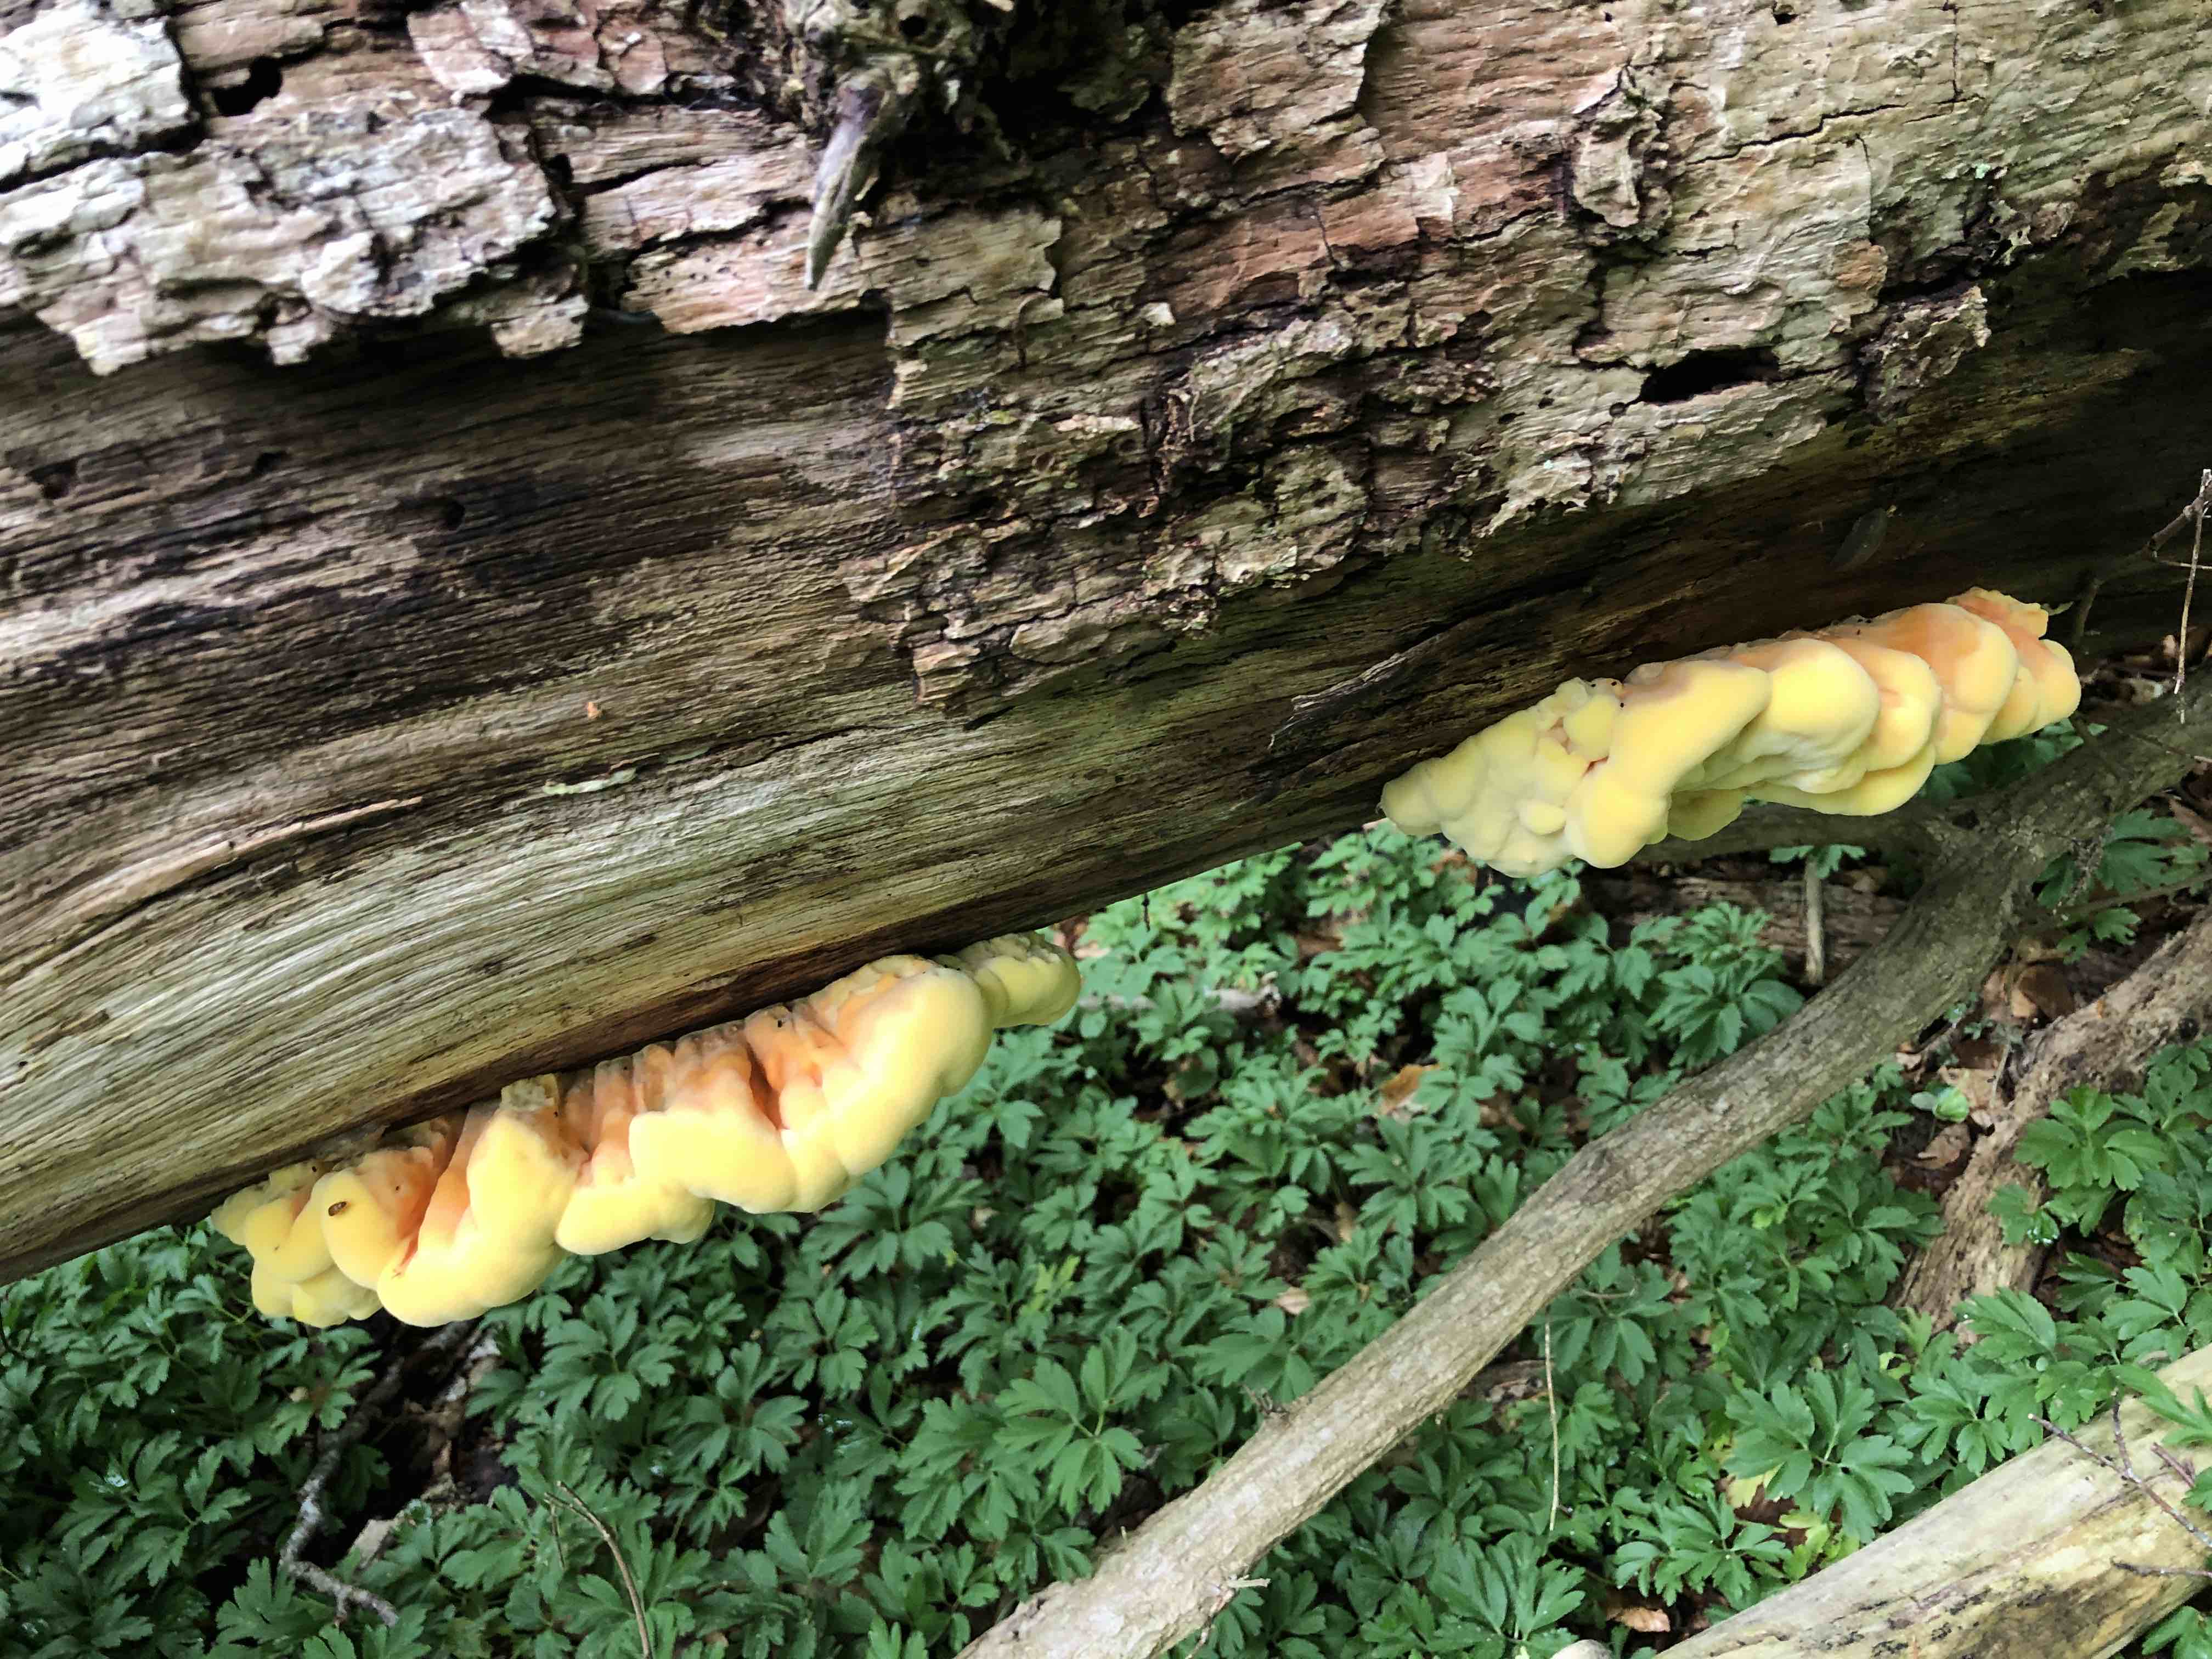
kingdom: Fungi
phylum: Basidiomycota
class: Agaricomycetes
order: Polyporales
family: Laetiporaceae
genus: Laetiporus
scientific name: Laetiporus sulphureus
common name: svovlporesvamp
